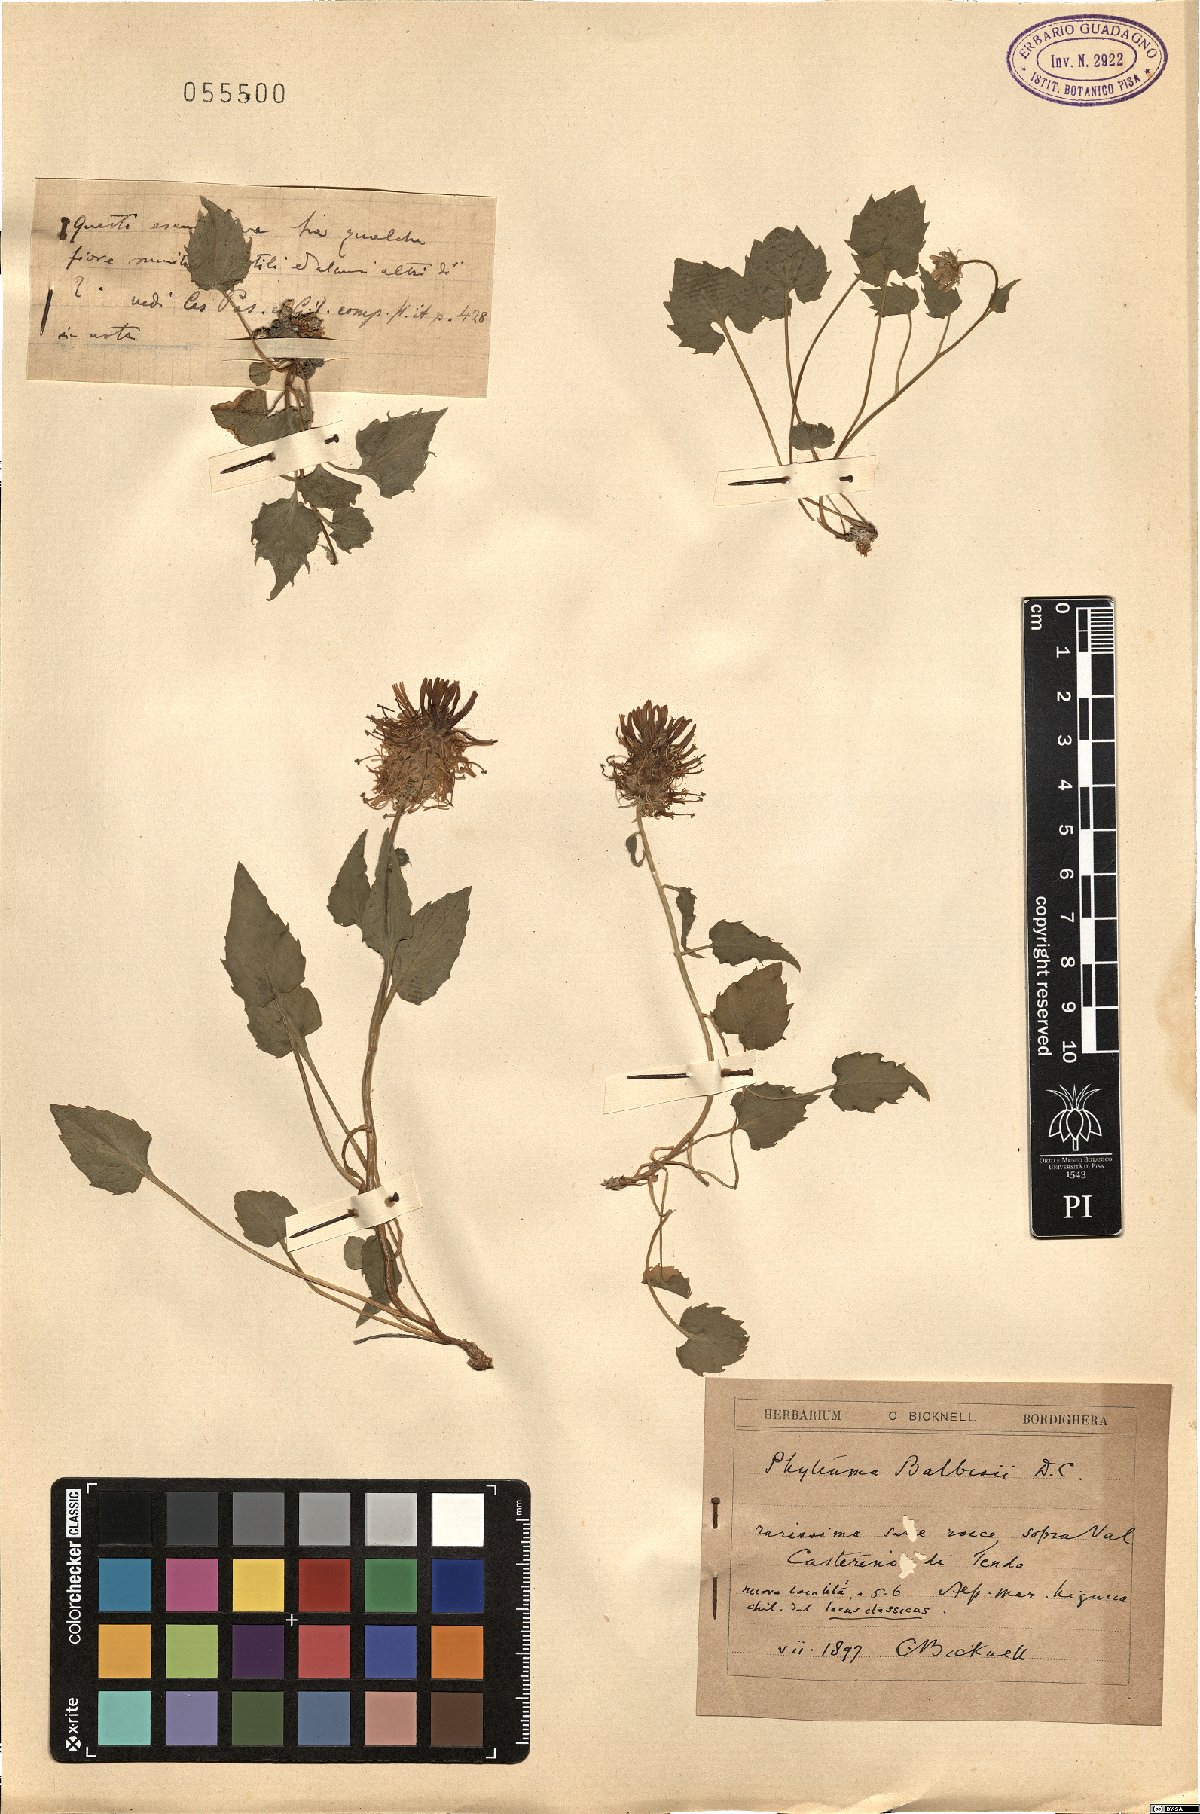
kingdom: Plantae
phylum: Tracheophyta
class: Magnoliopsida
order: Asterales
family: Campanulaceae
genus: Phyteuma
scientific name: Phyteuma cordatum
